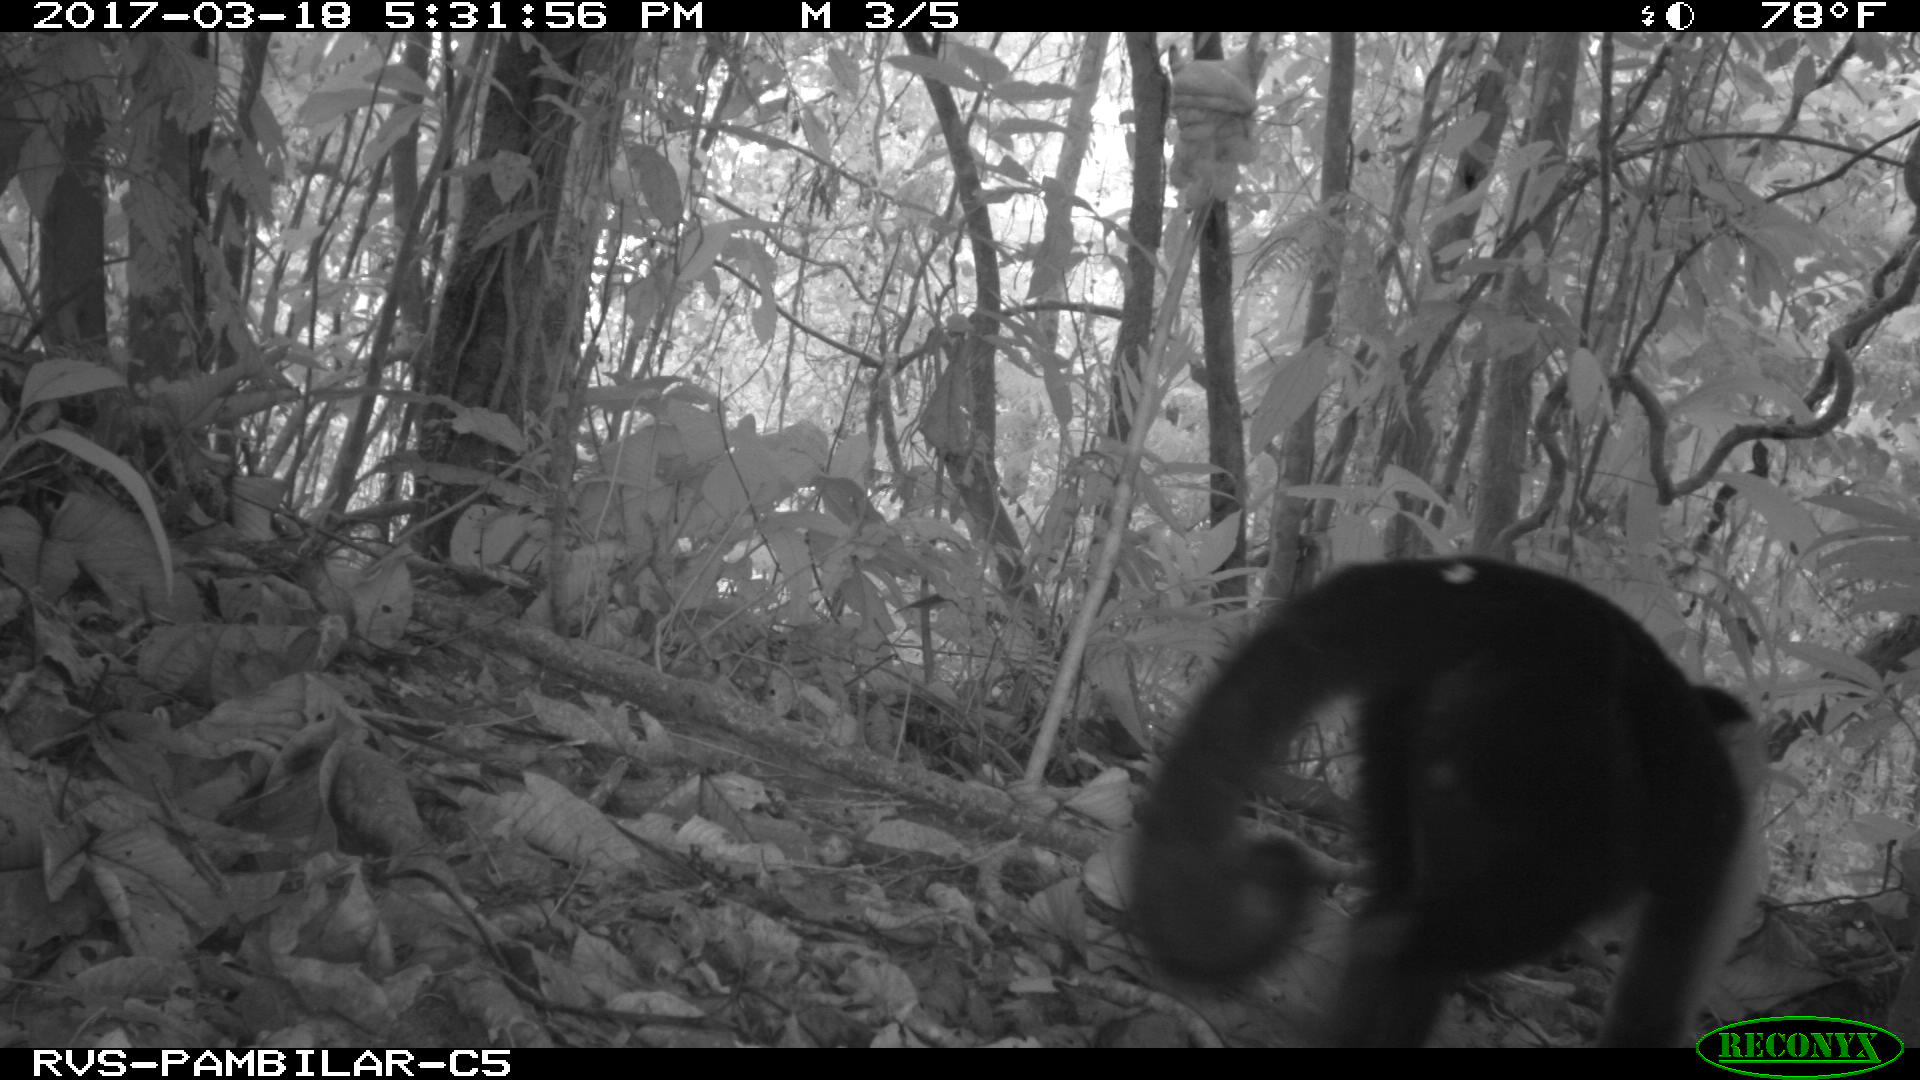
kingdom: Animalia
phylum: Chordata
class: Mammalia
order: Primates
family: Cebidae
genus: Cebus
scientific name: Cebus capucinus
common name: White-headed capuchin
